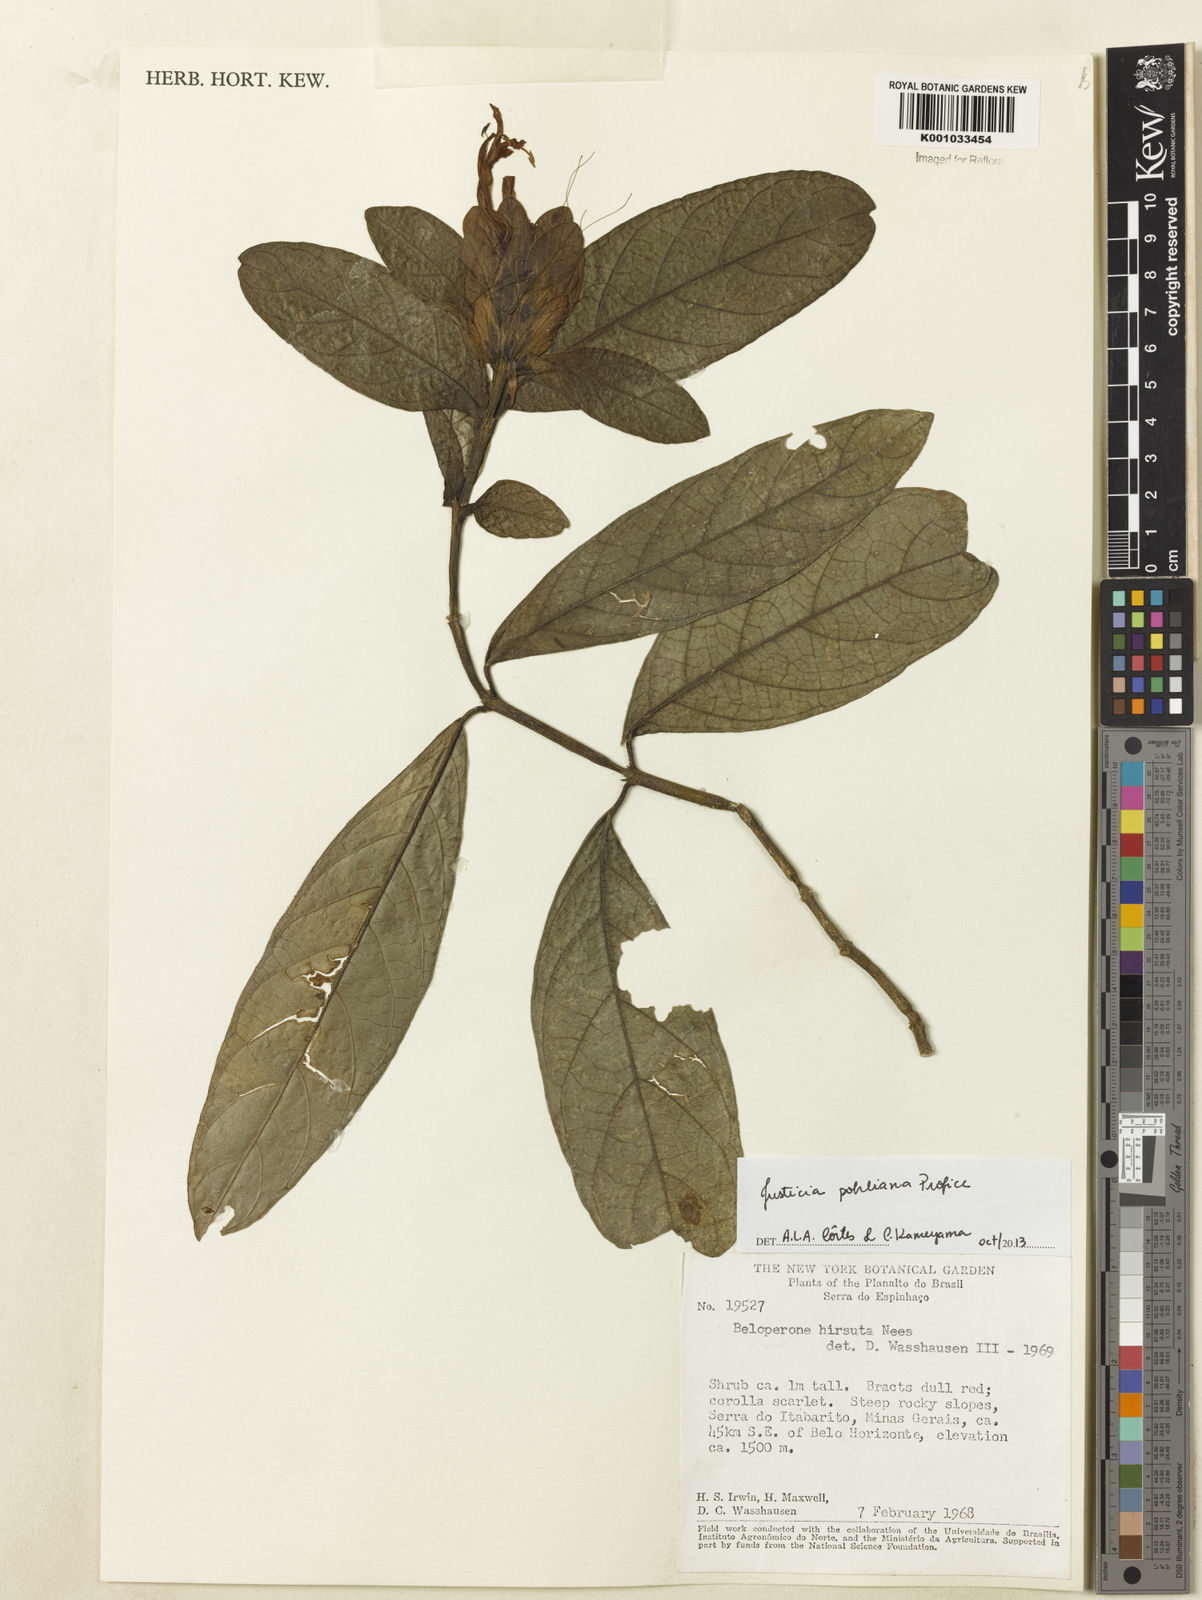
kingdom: Plantae
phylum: Tracheophyta
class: Magnoliopsida
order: Lamiales
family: Acanthaceae
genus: Justicia
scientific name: Justicia pohliana
